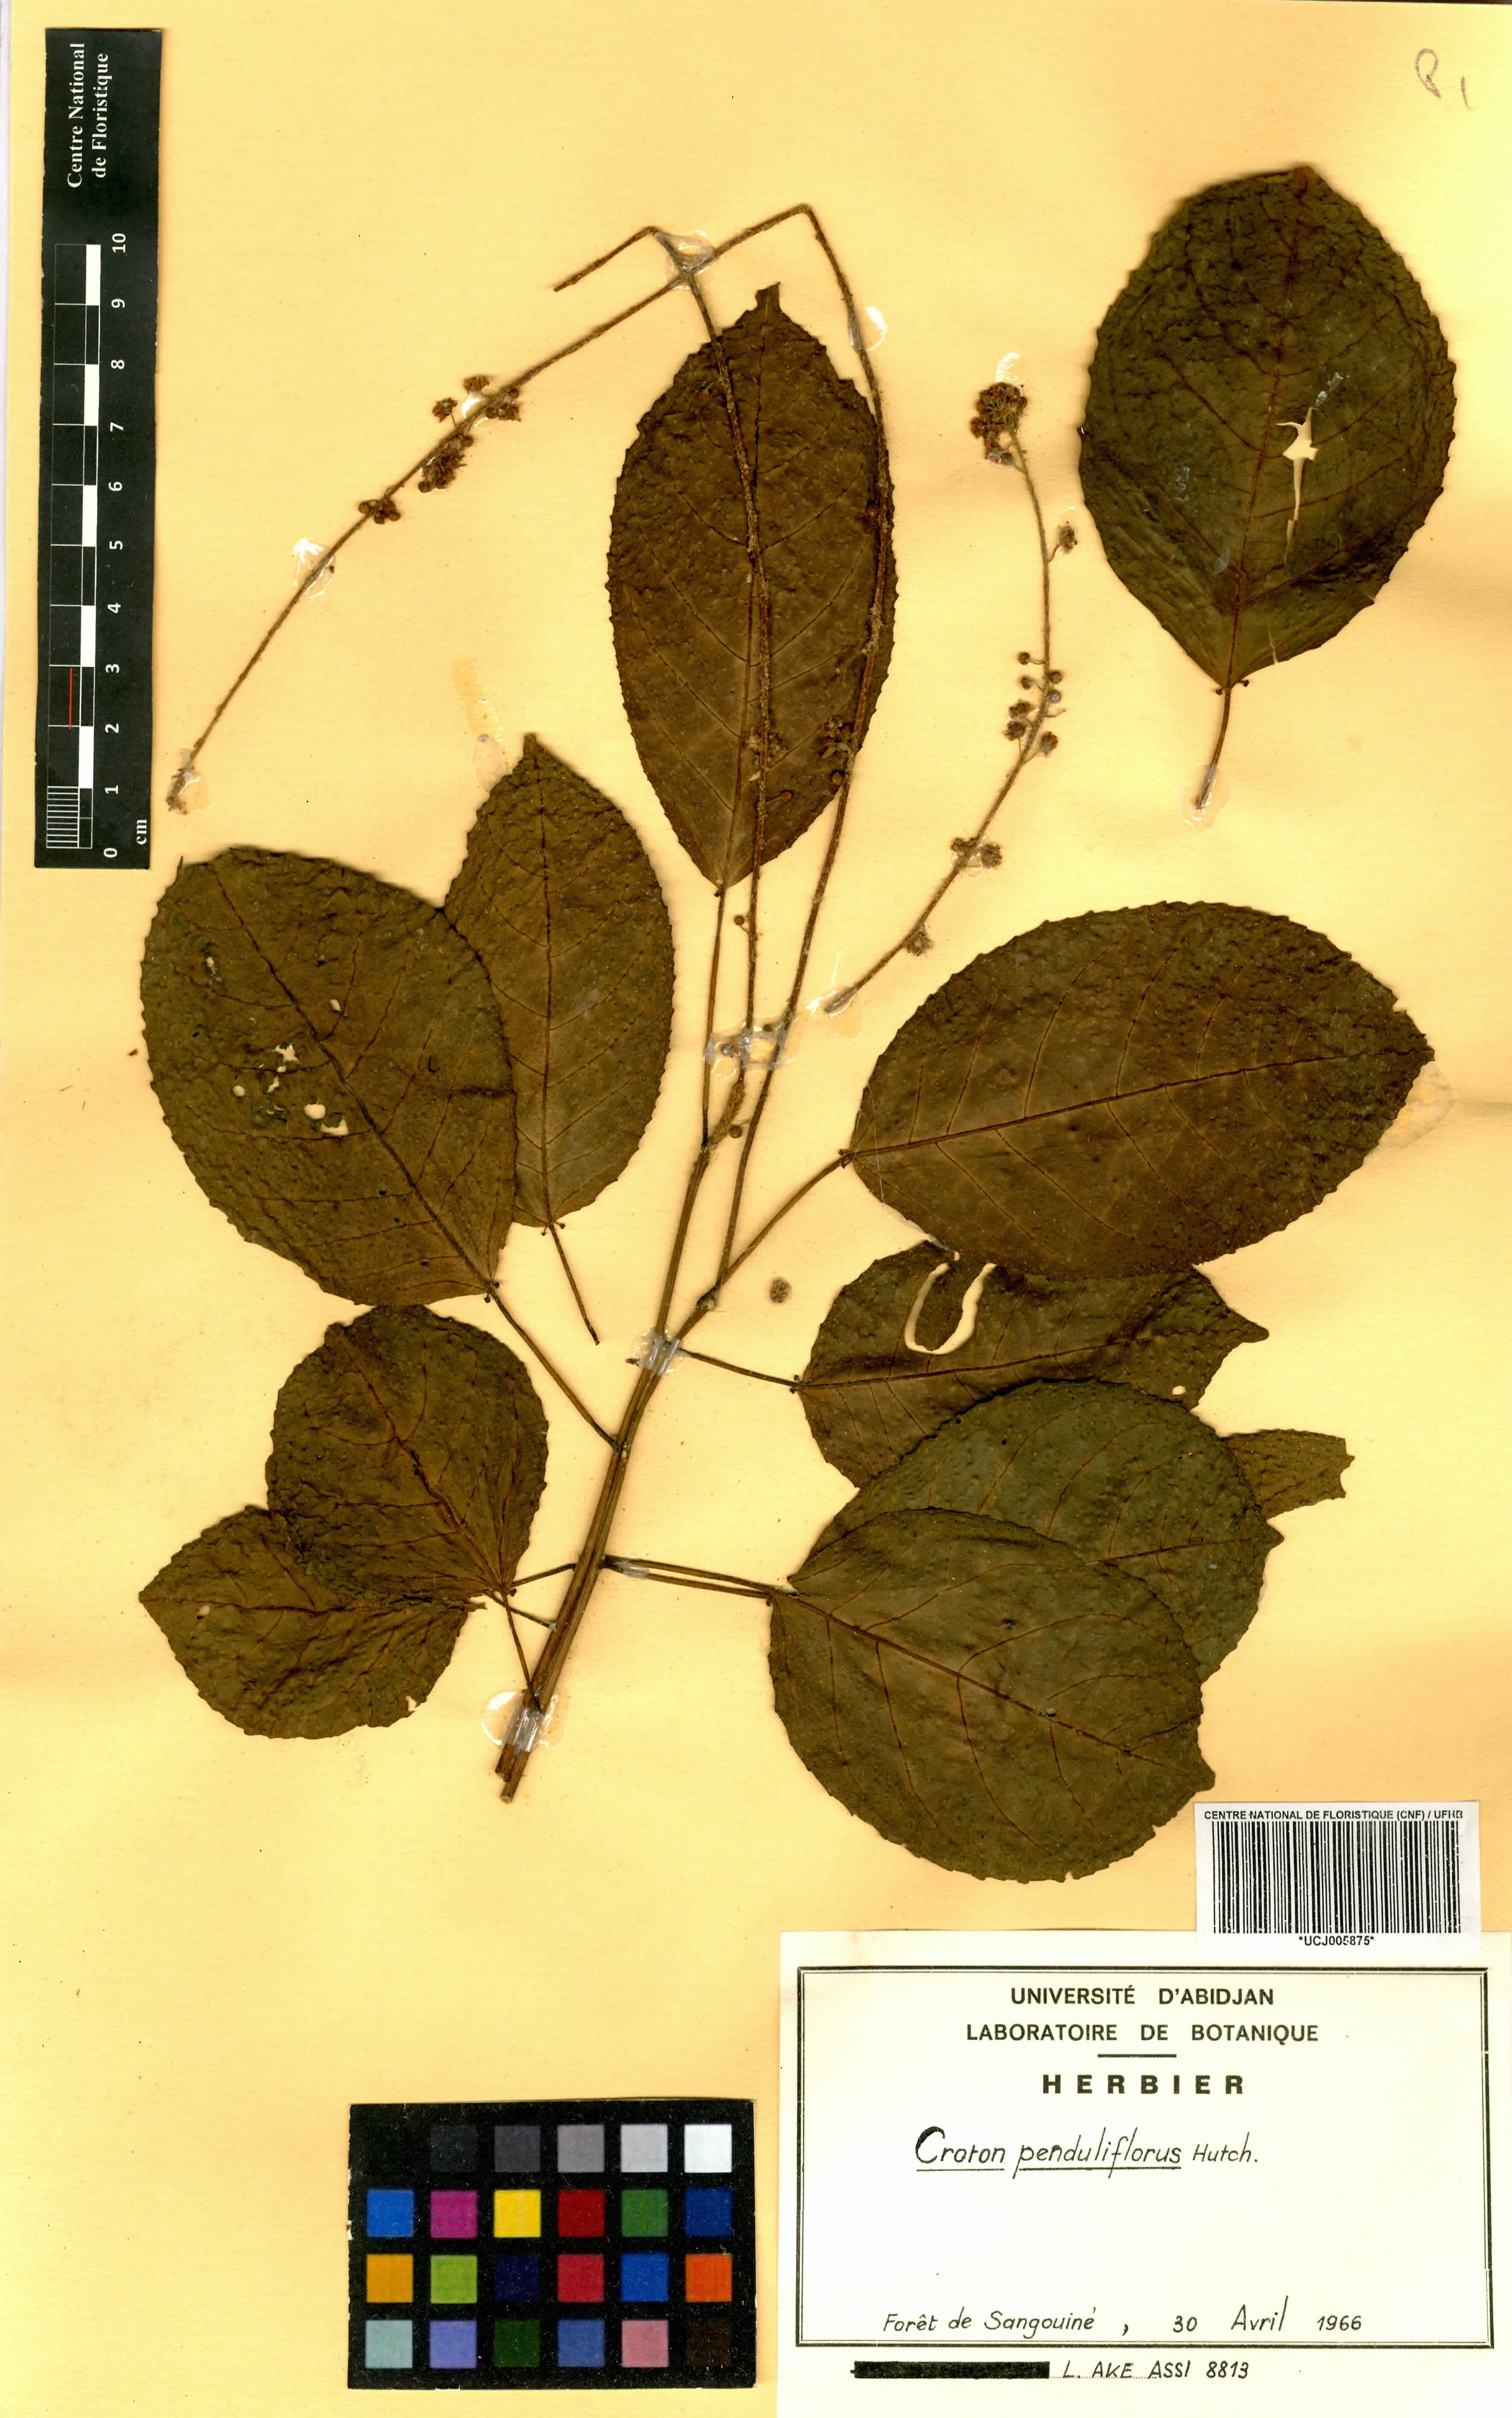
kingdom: Plantae
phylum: Tracheophyta
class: Magnoliopsida
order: Malpighiales
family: Euphorbiaceae
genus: Croton
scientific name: Croton penduliflorus
